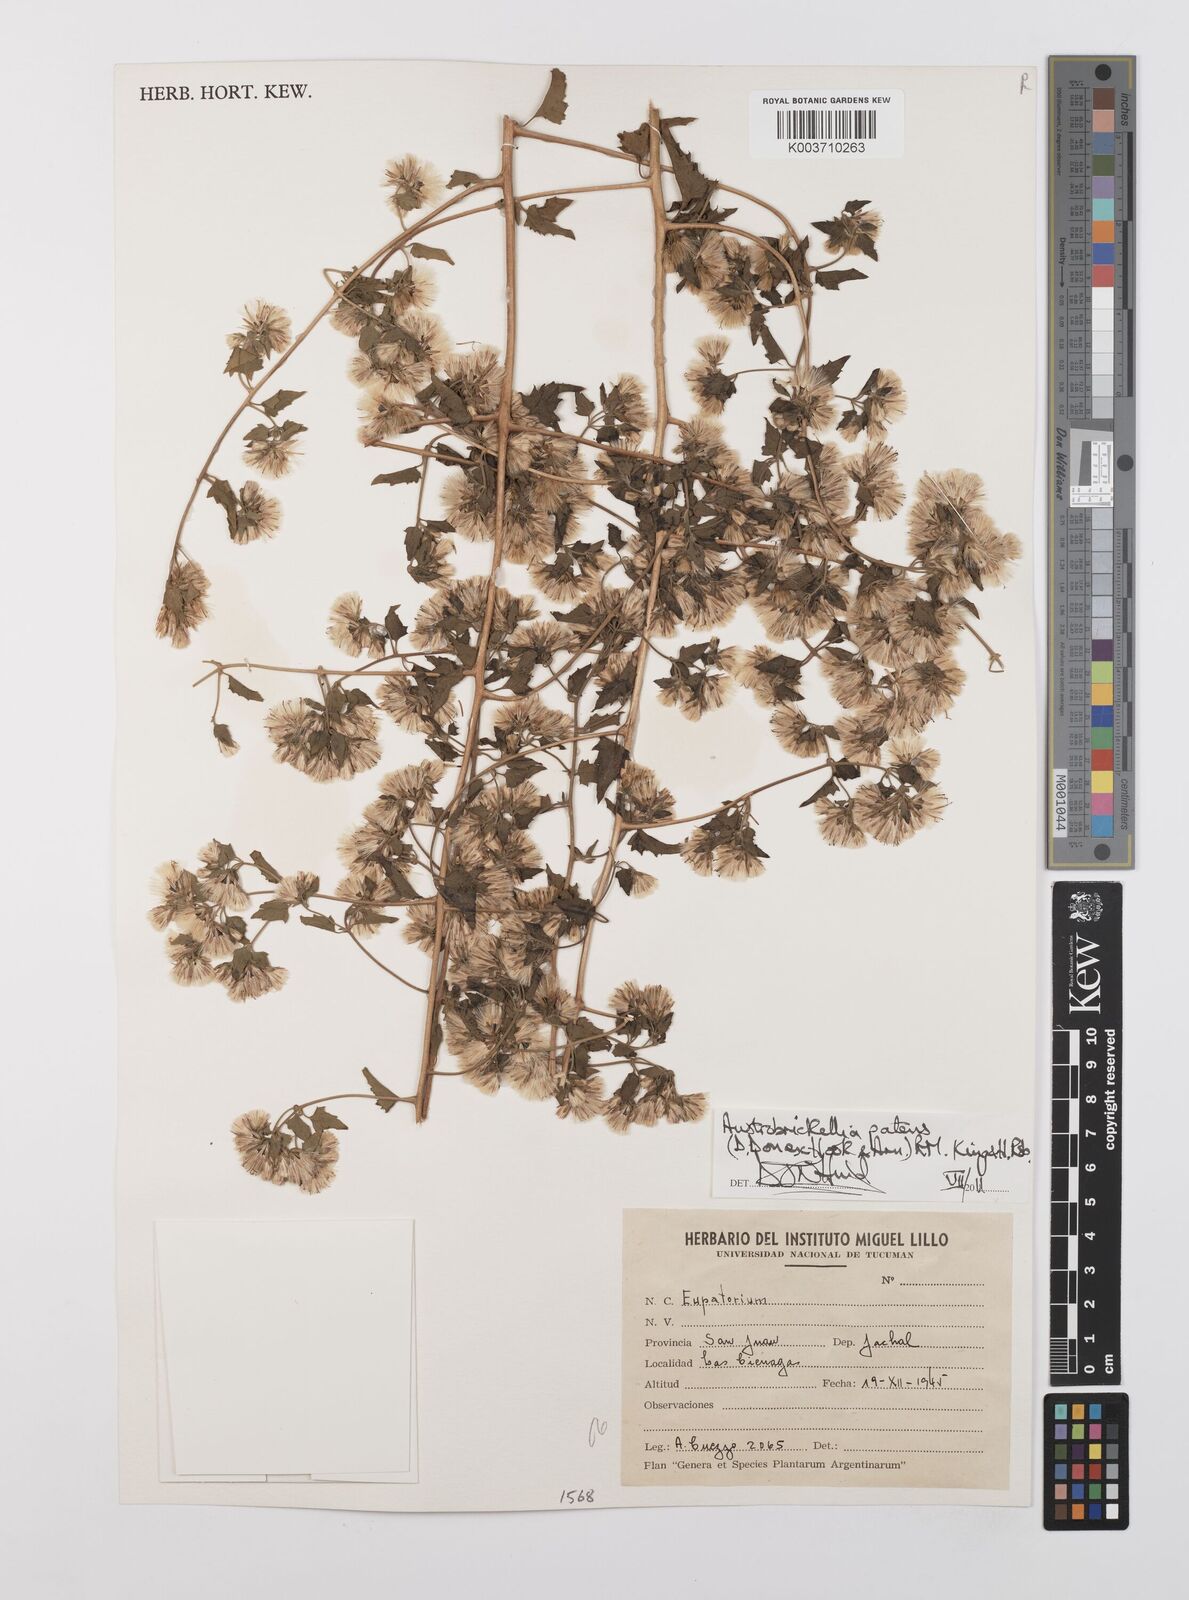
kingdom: Plantae
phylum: Tracheophyta
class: Magnoliopsida
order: Asterales
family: Asteraceae
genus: Austrobrickellia
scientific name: Austrobrickellia patens
